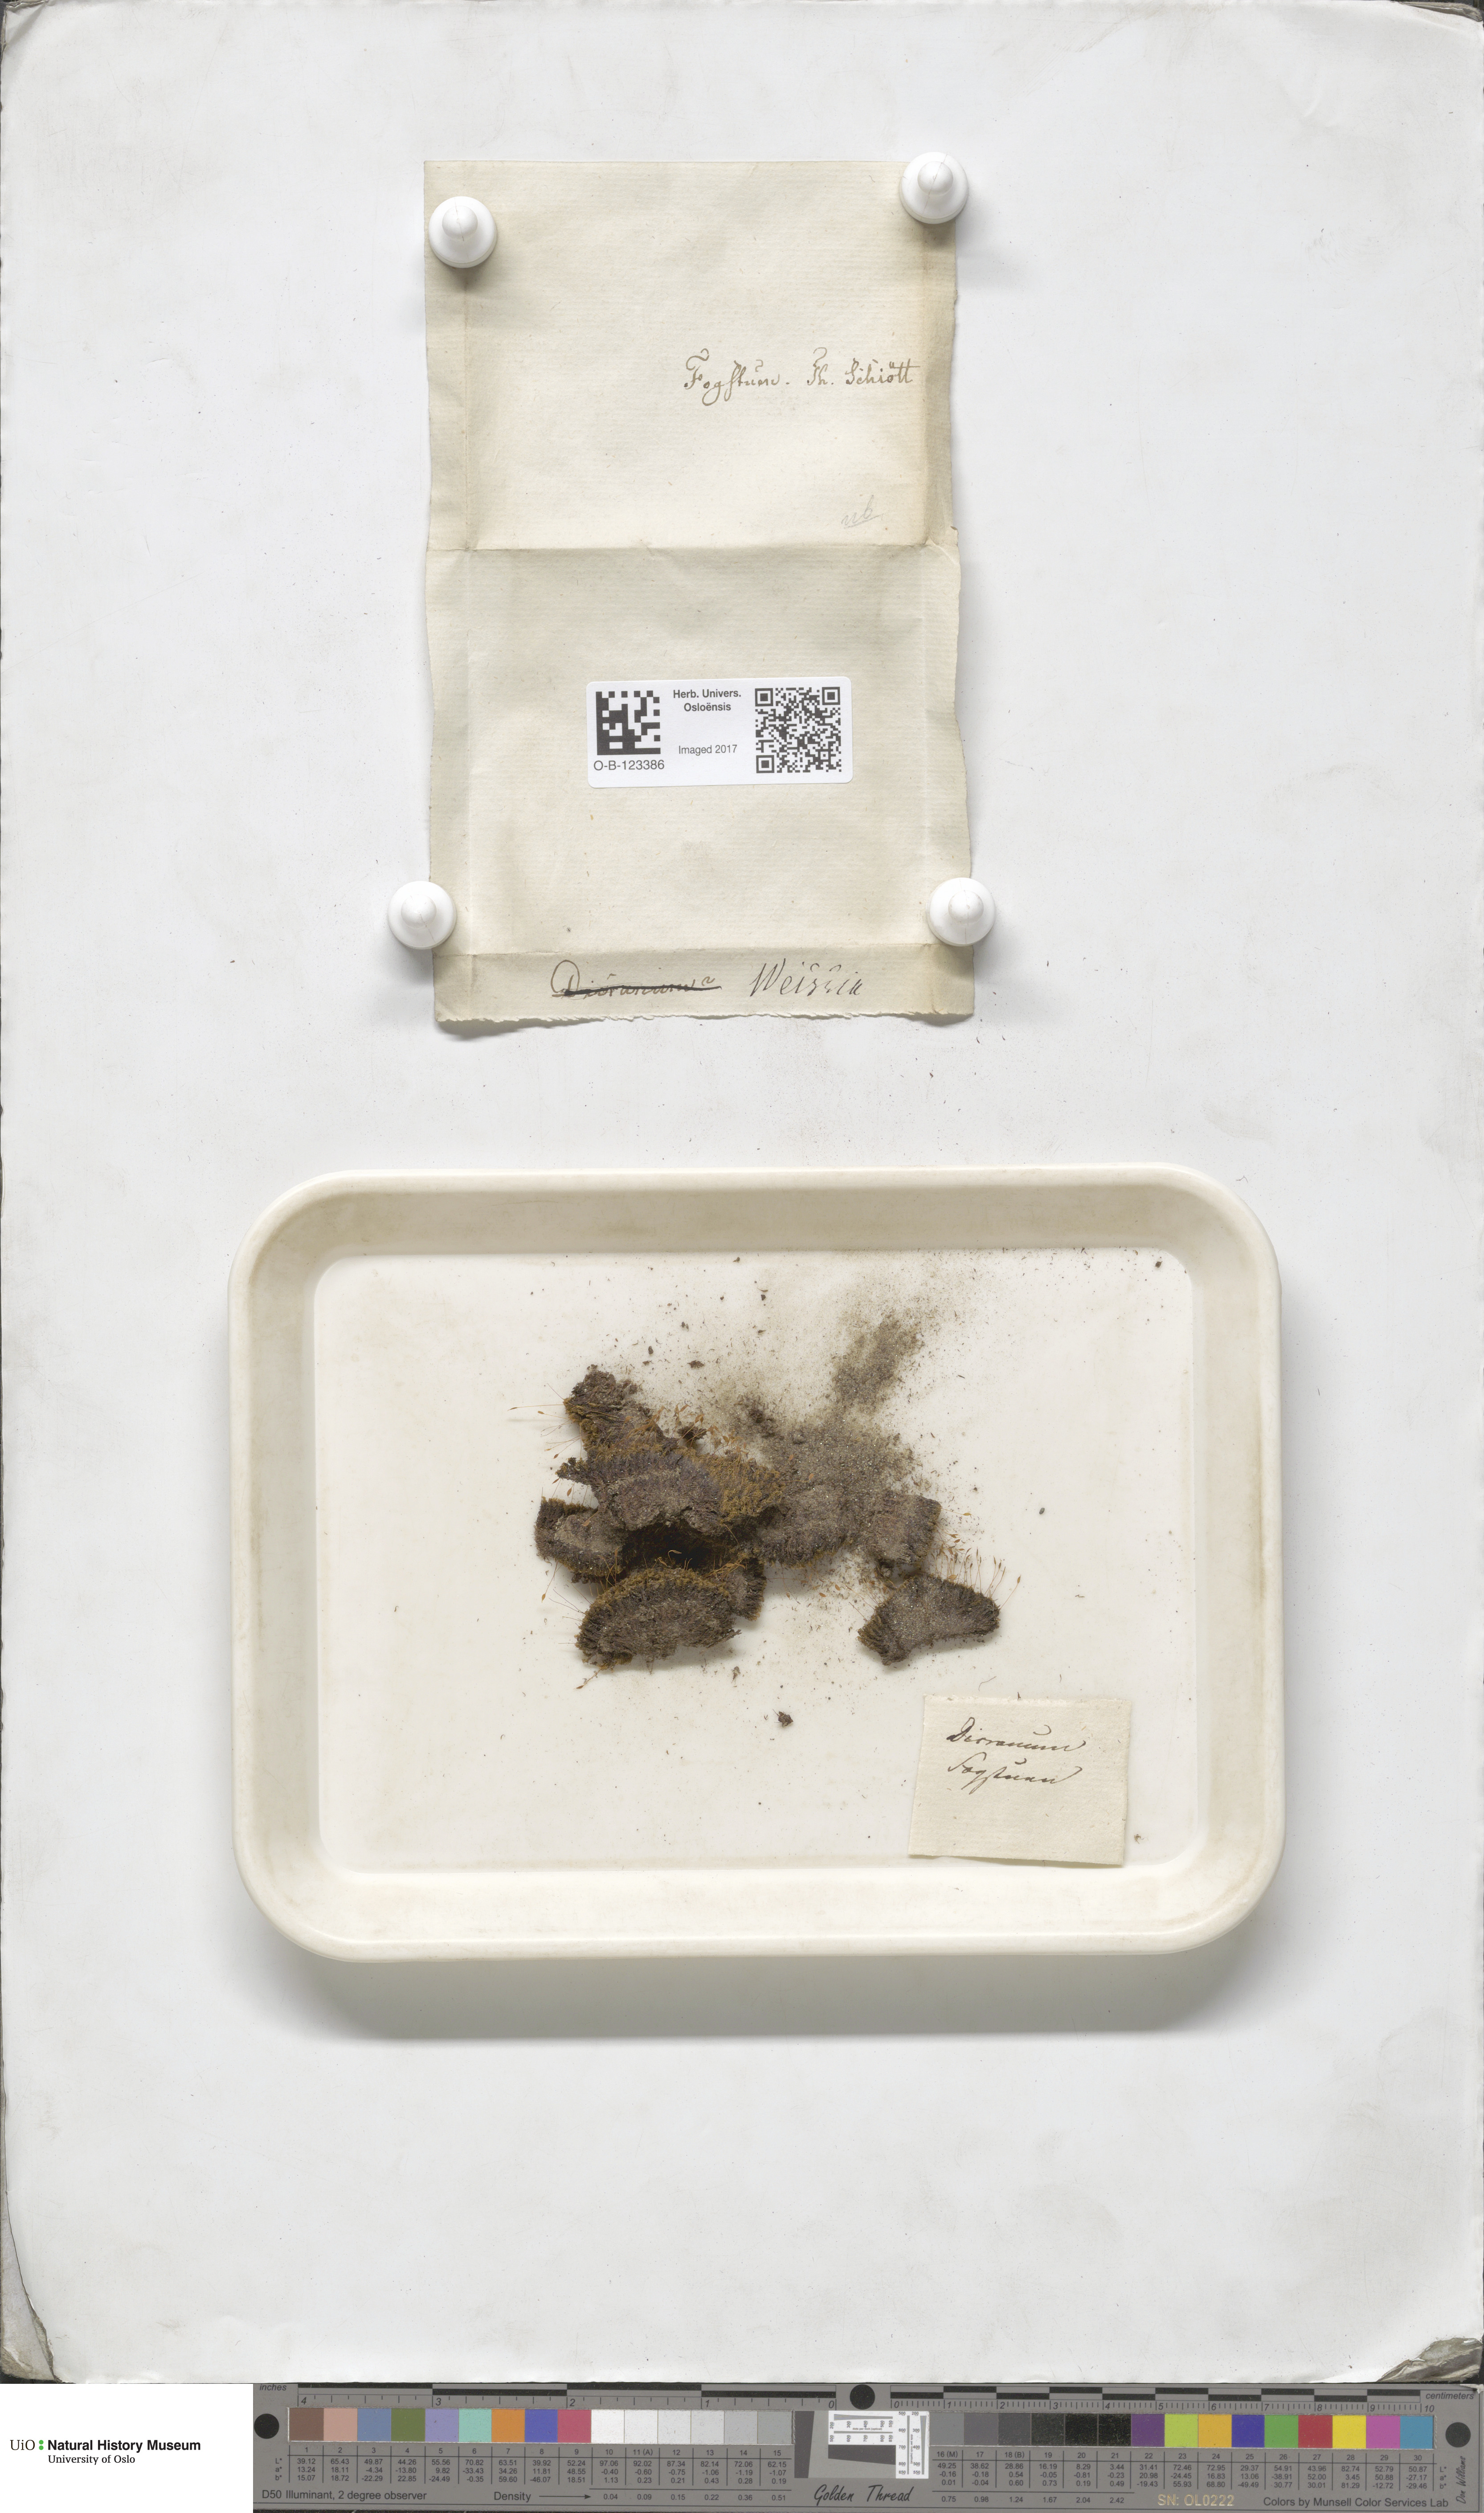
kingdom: Plantae
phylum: Bryophyta
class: Bryopsida
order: Scouleriales
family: Hymenolomataceae
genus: Hymenoloma
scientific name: Hymenoloma crispulum
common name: Mountain pincushion
